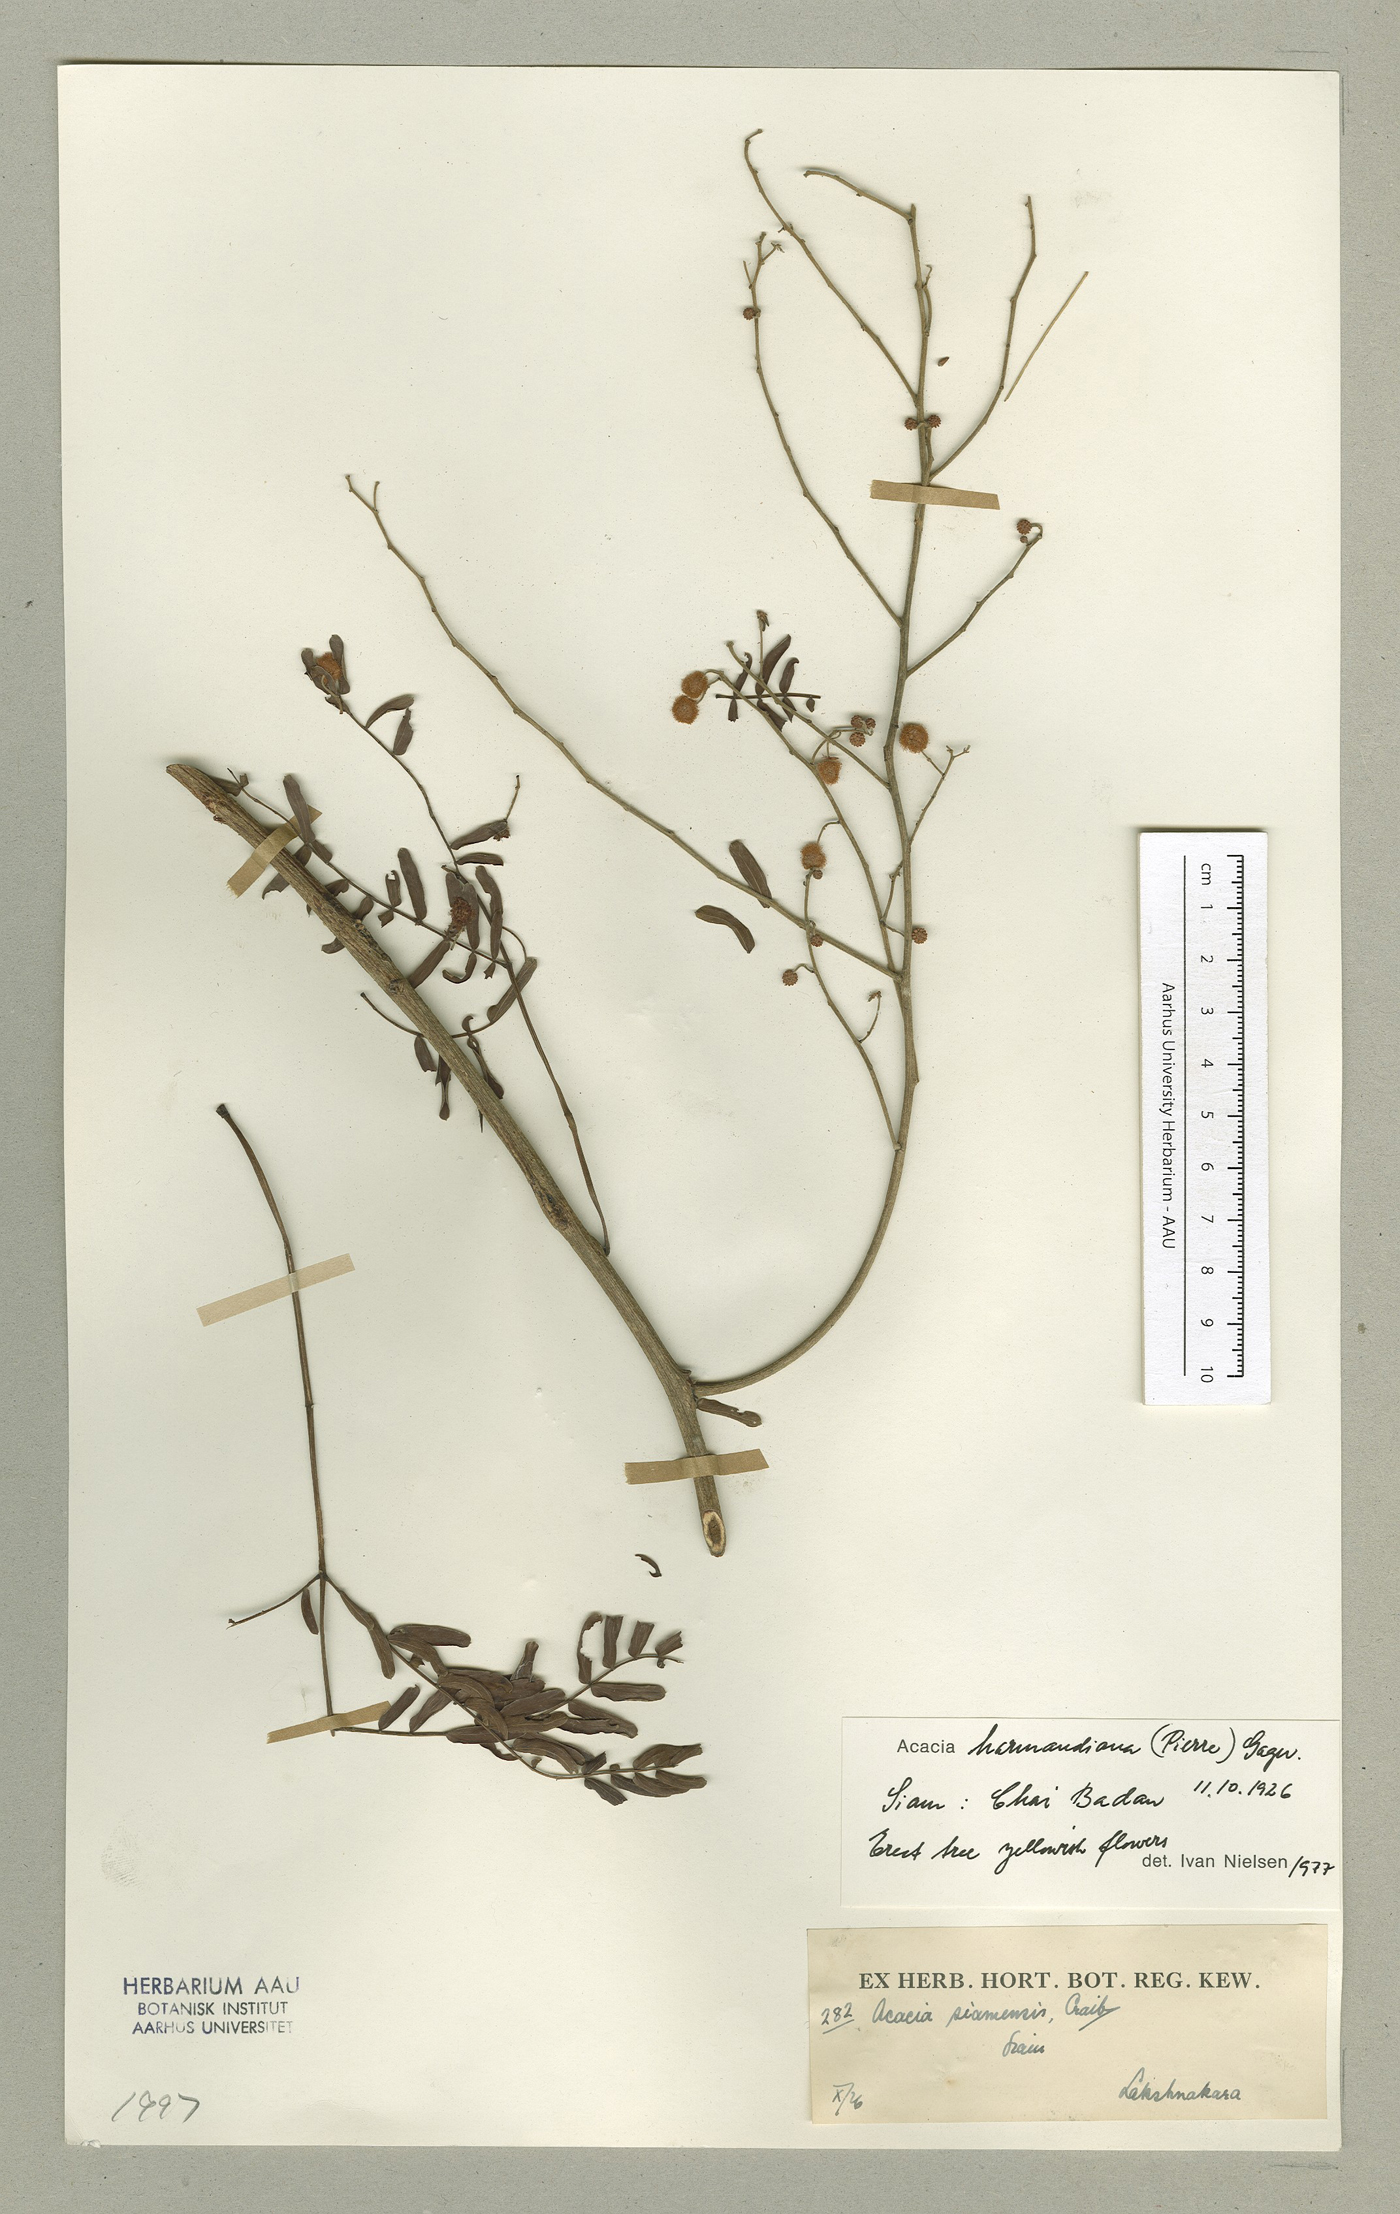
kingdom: Plantae
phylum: Tracheophyta
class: Magnoliopsida
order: Fabales
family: Fabaceae
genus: Vachellia
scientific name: Vachellia harmandiana
